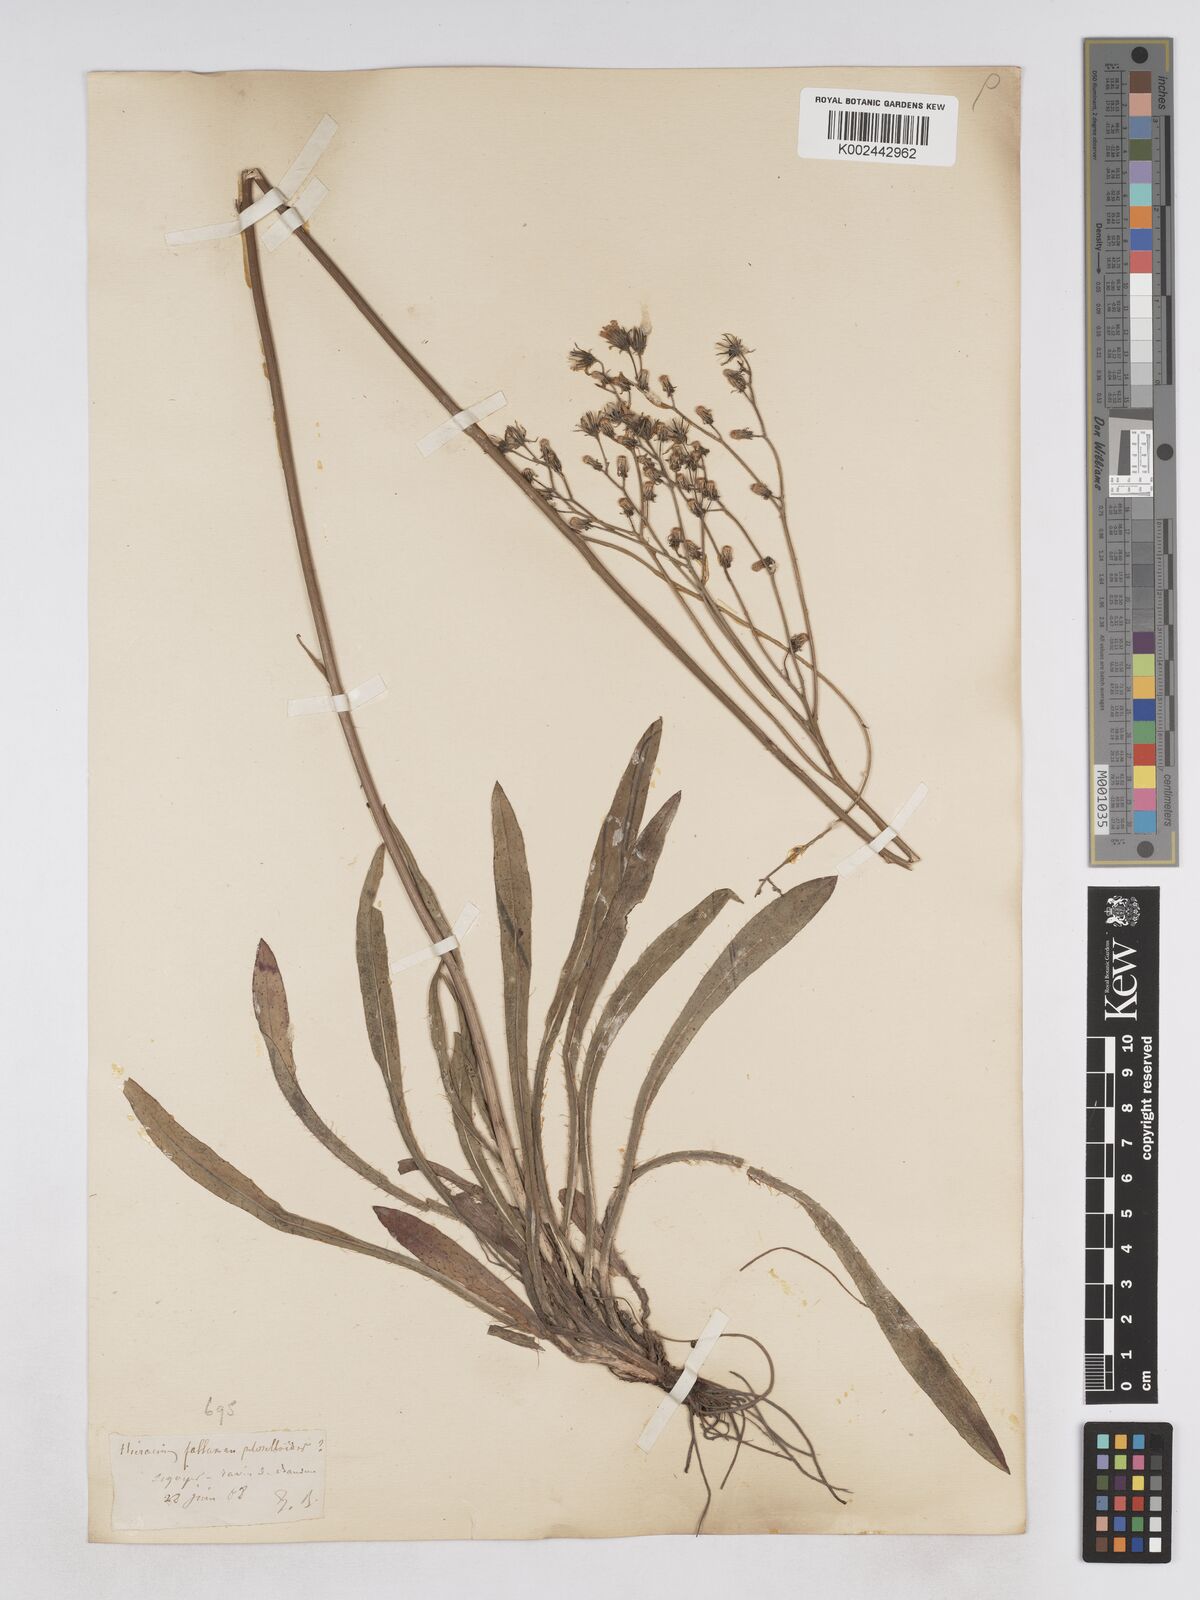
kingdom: Plantae
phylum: Tracheophyta
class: Magnoliopsida
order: Asterales
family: Asteraceae
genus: Pilosella
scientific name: Pilosella piloselloides
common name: Glaucous king-devil
